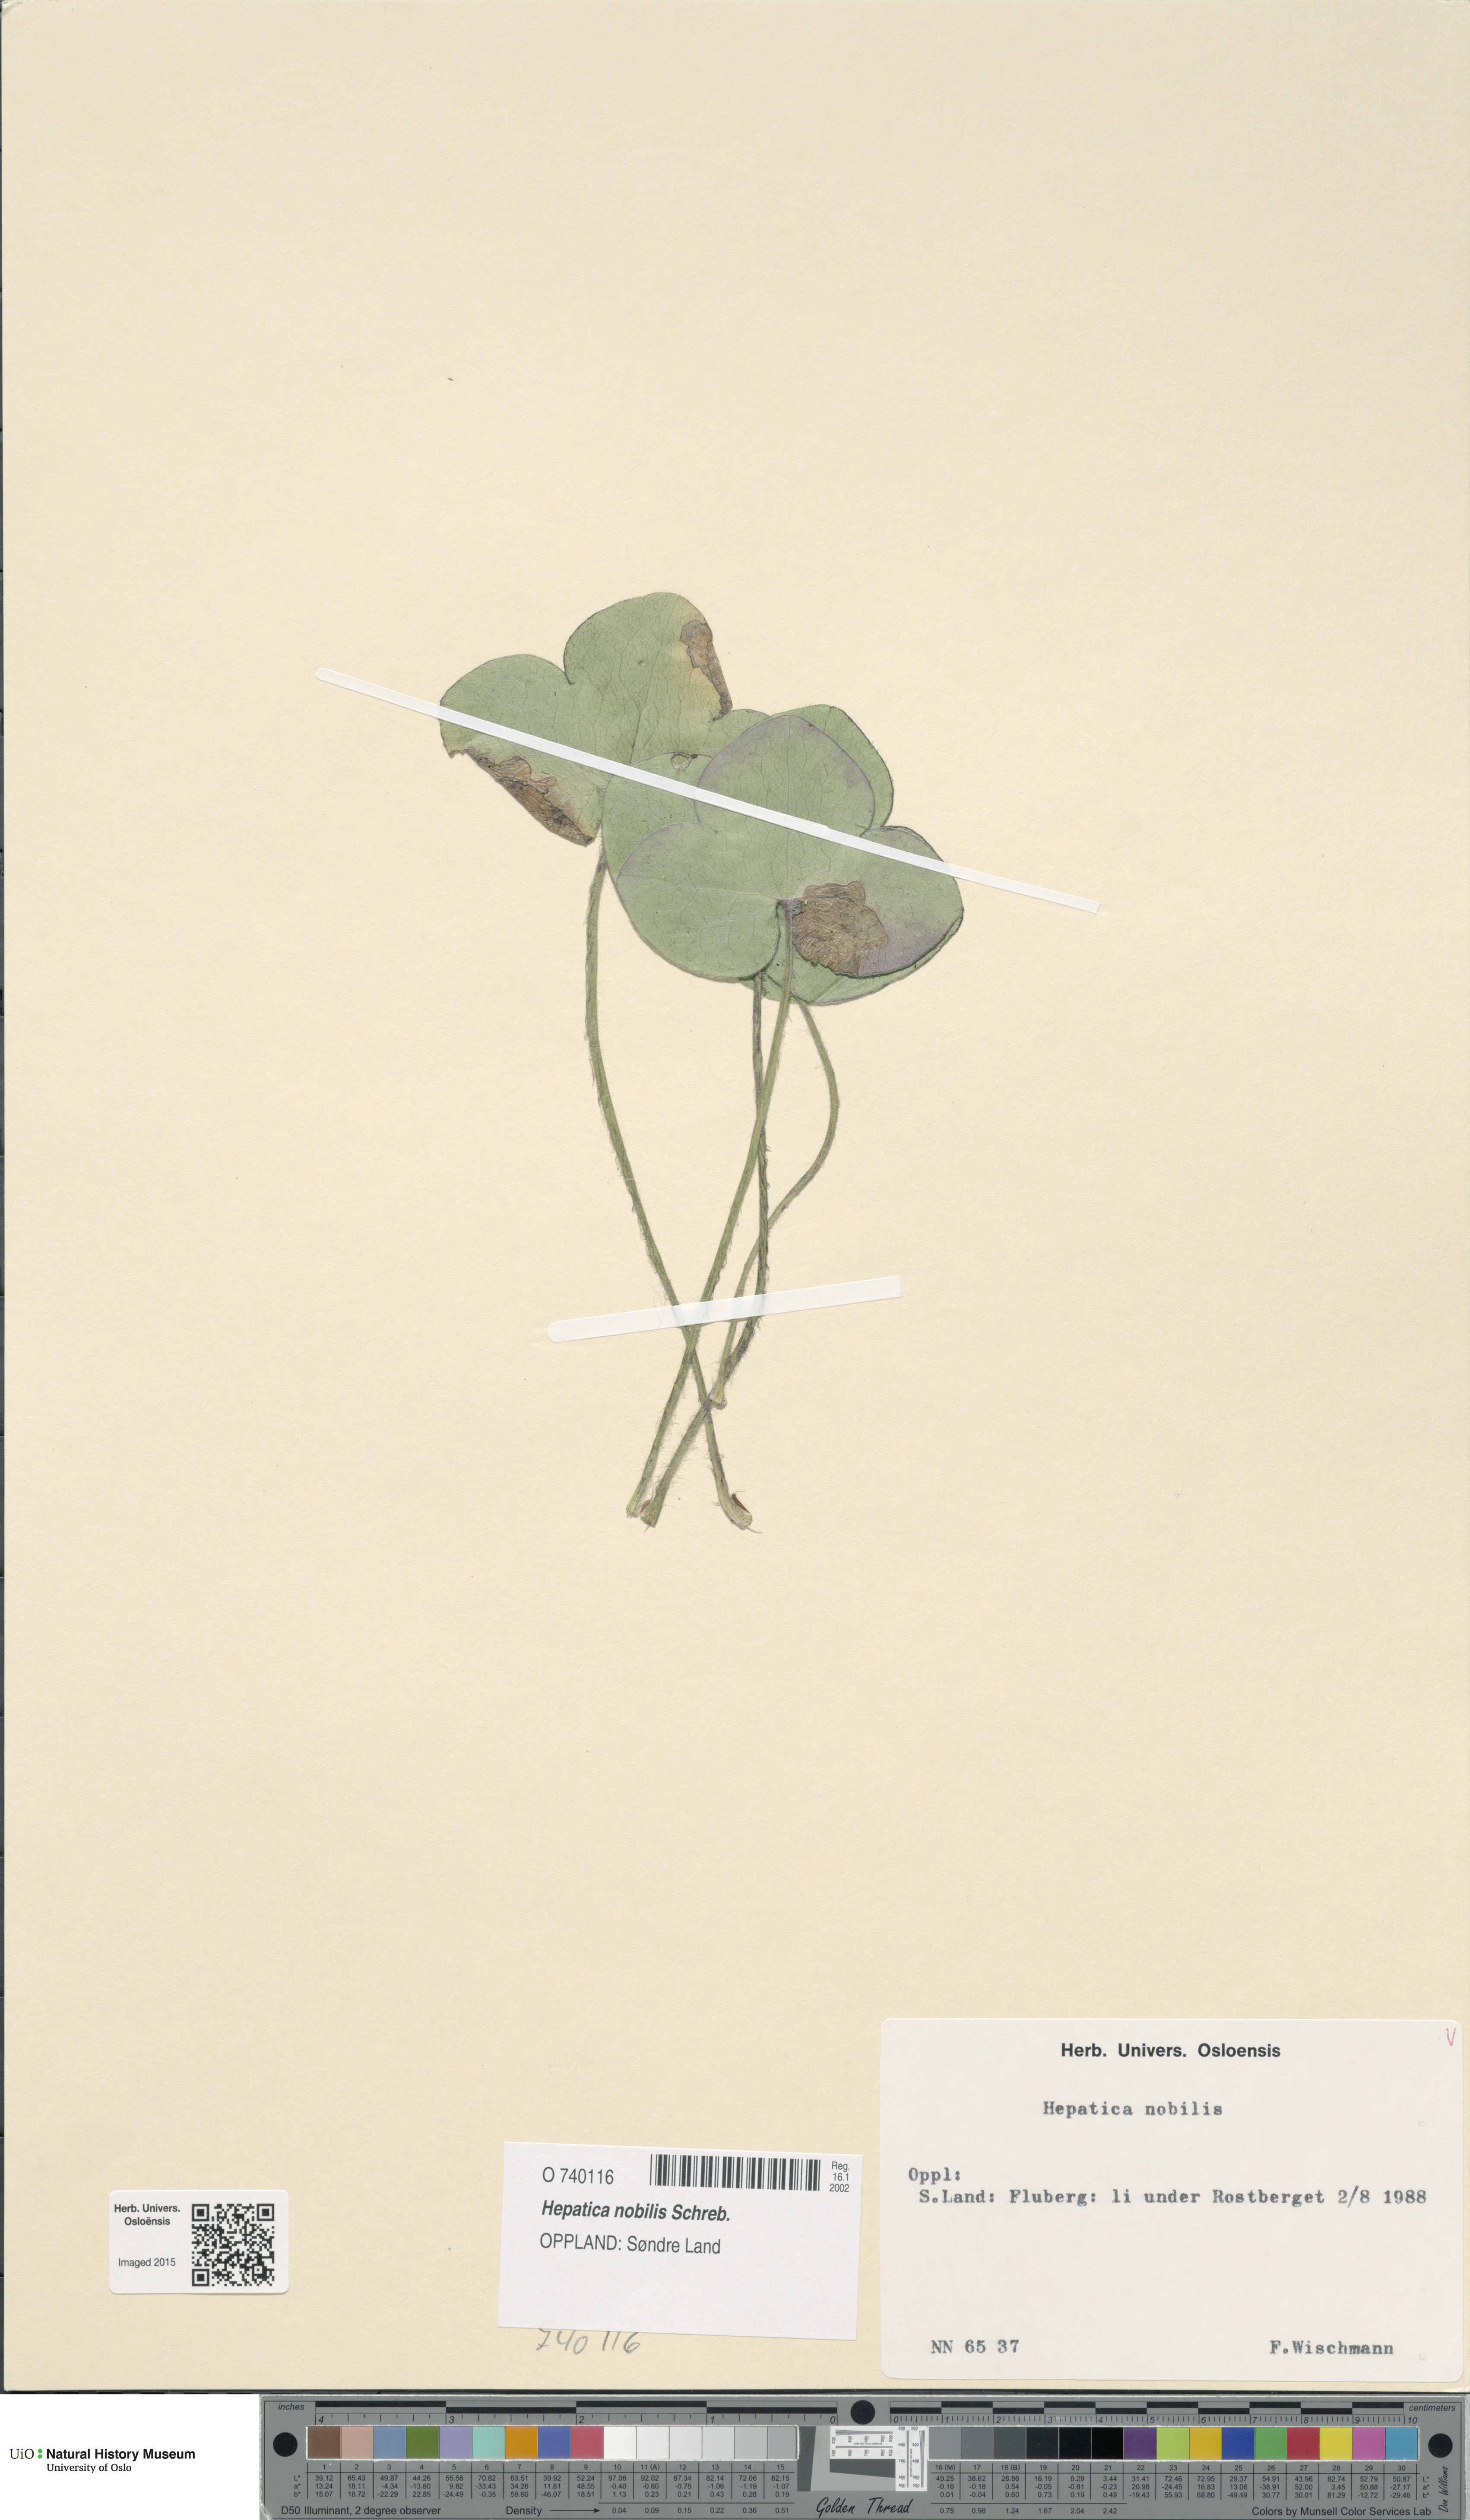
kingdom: Plantae
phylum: Tracheophyta
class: Magnoliopsida
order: Ranunculales
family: Ranunculaceae
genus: Hepatica
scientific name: Hepatica nobilis
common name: Liverleaf
